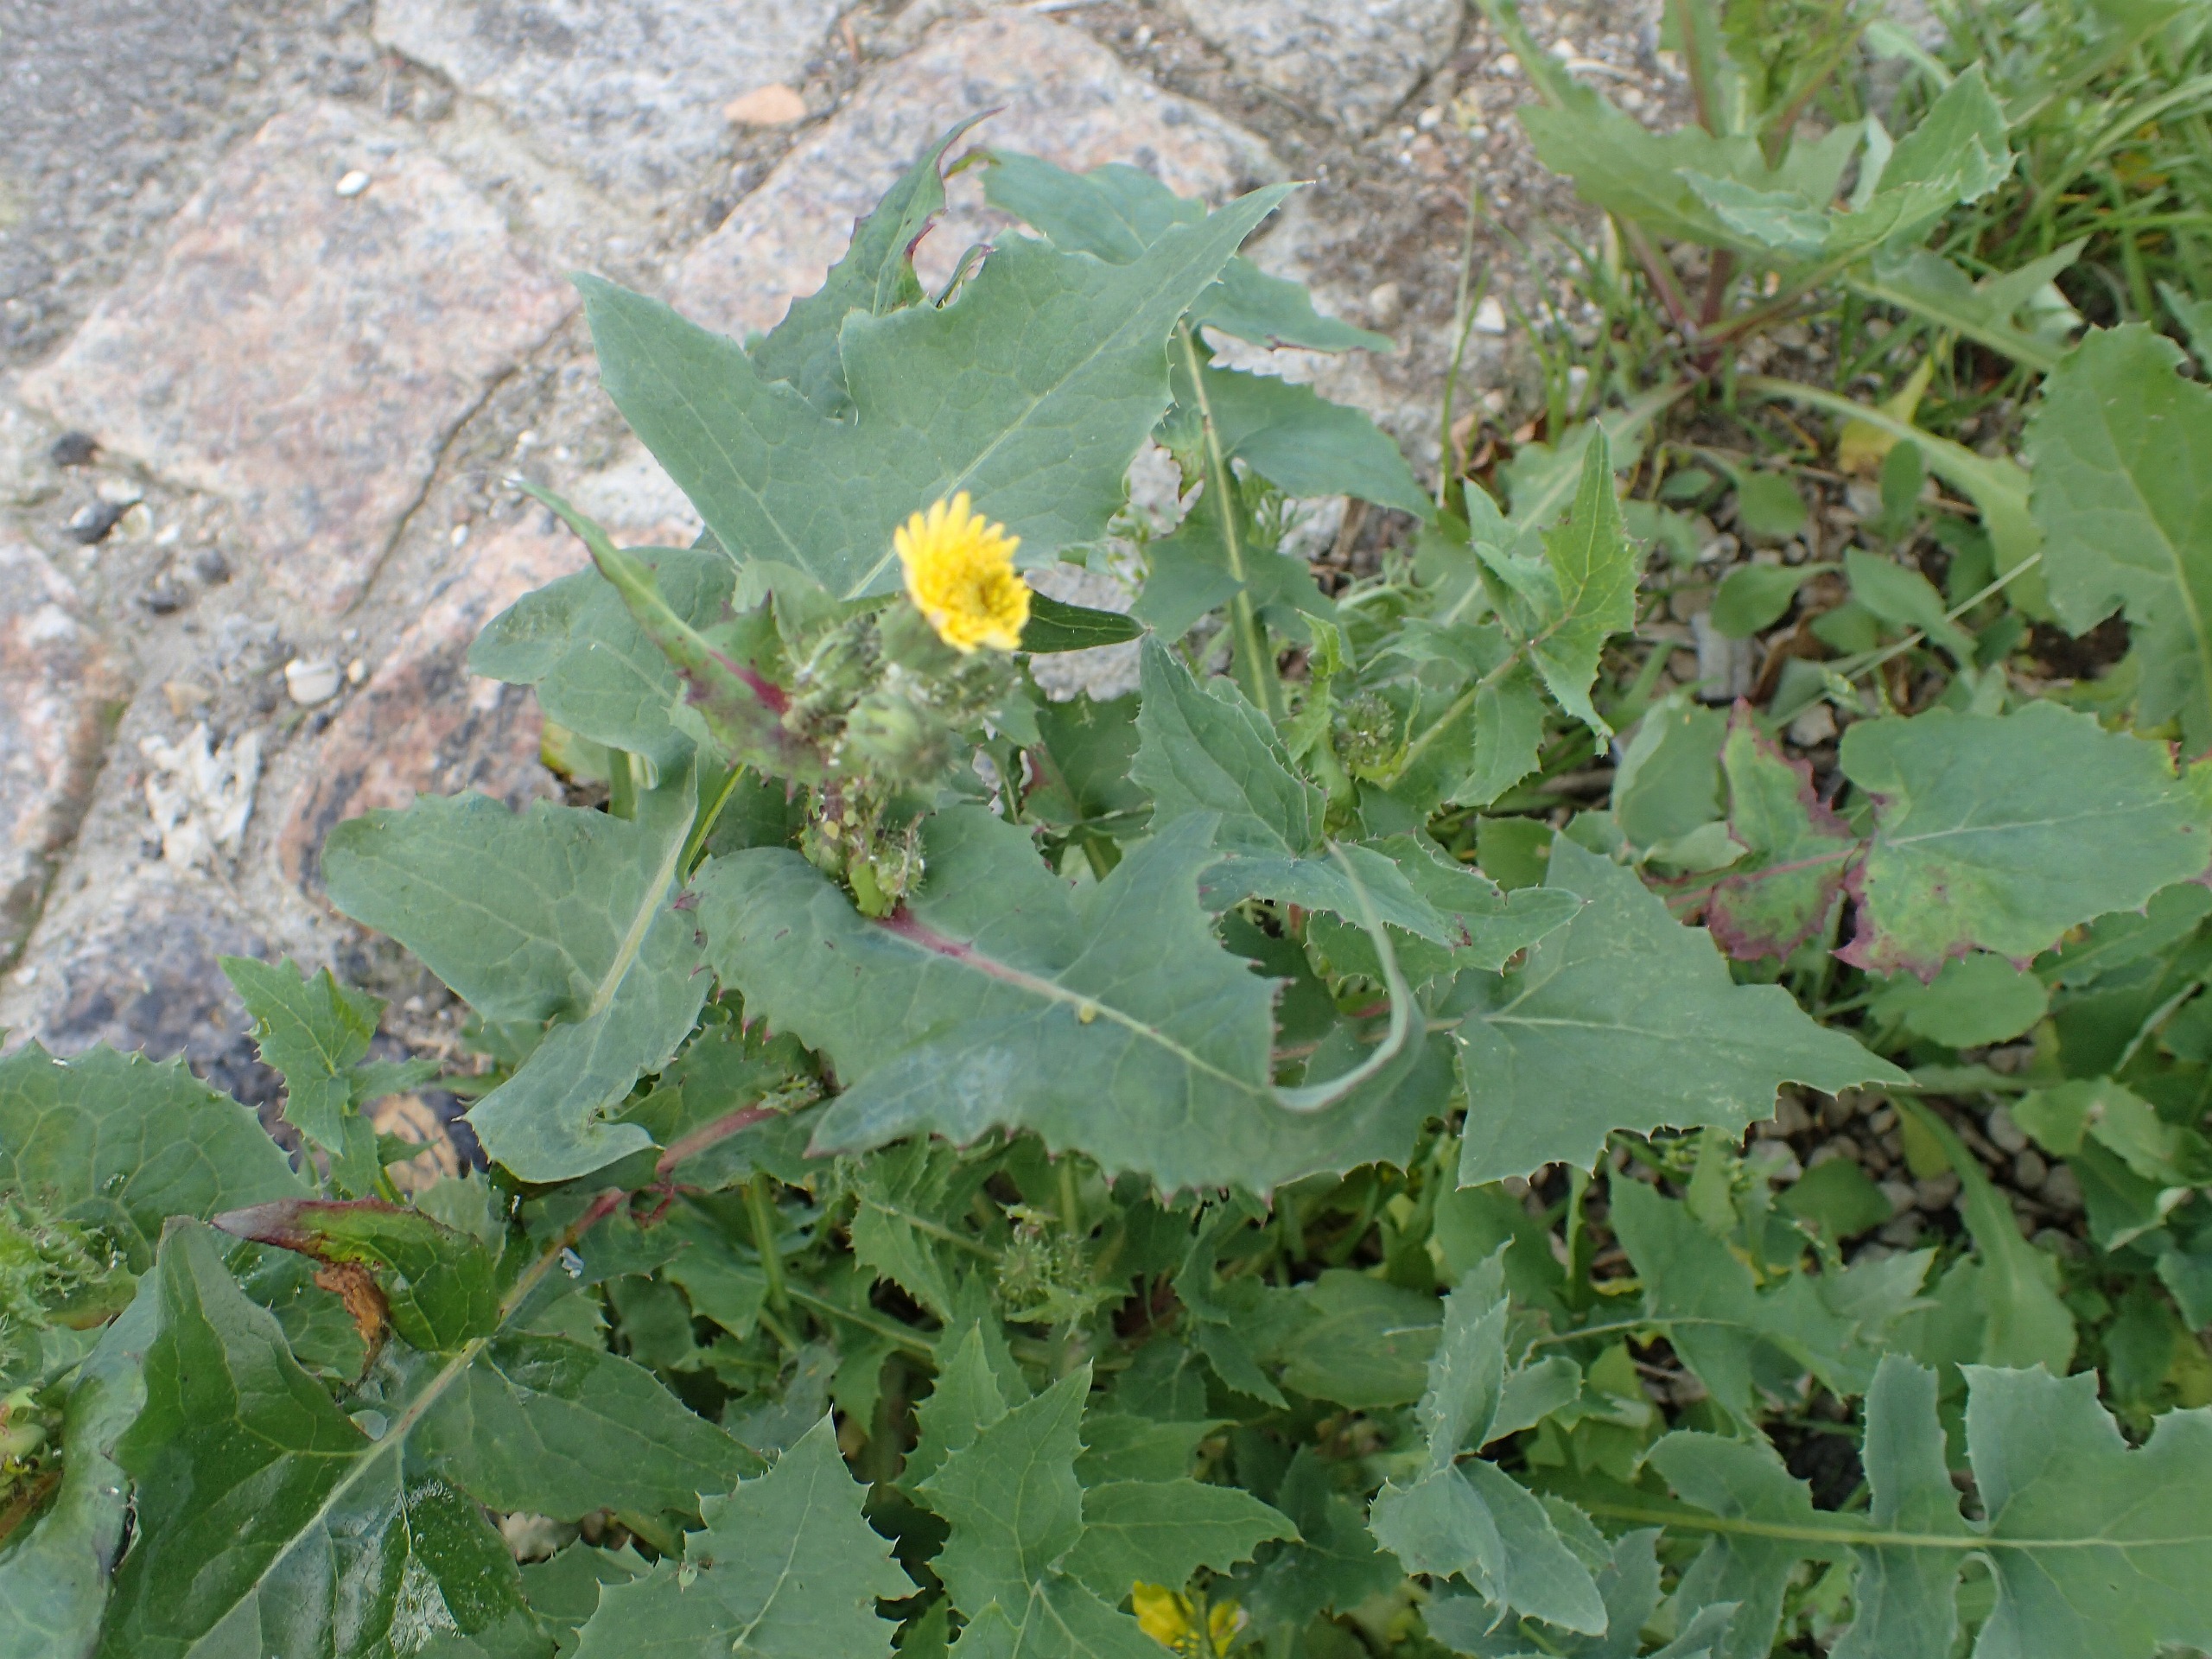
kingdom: Plantae
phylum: Tracheophyta
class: Magnoliopsida
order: Asterales
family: Asteraceae
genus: Sonchus
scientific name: Sonchus oleraceus
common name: Almindelig svinemælk
